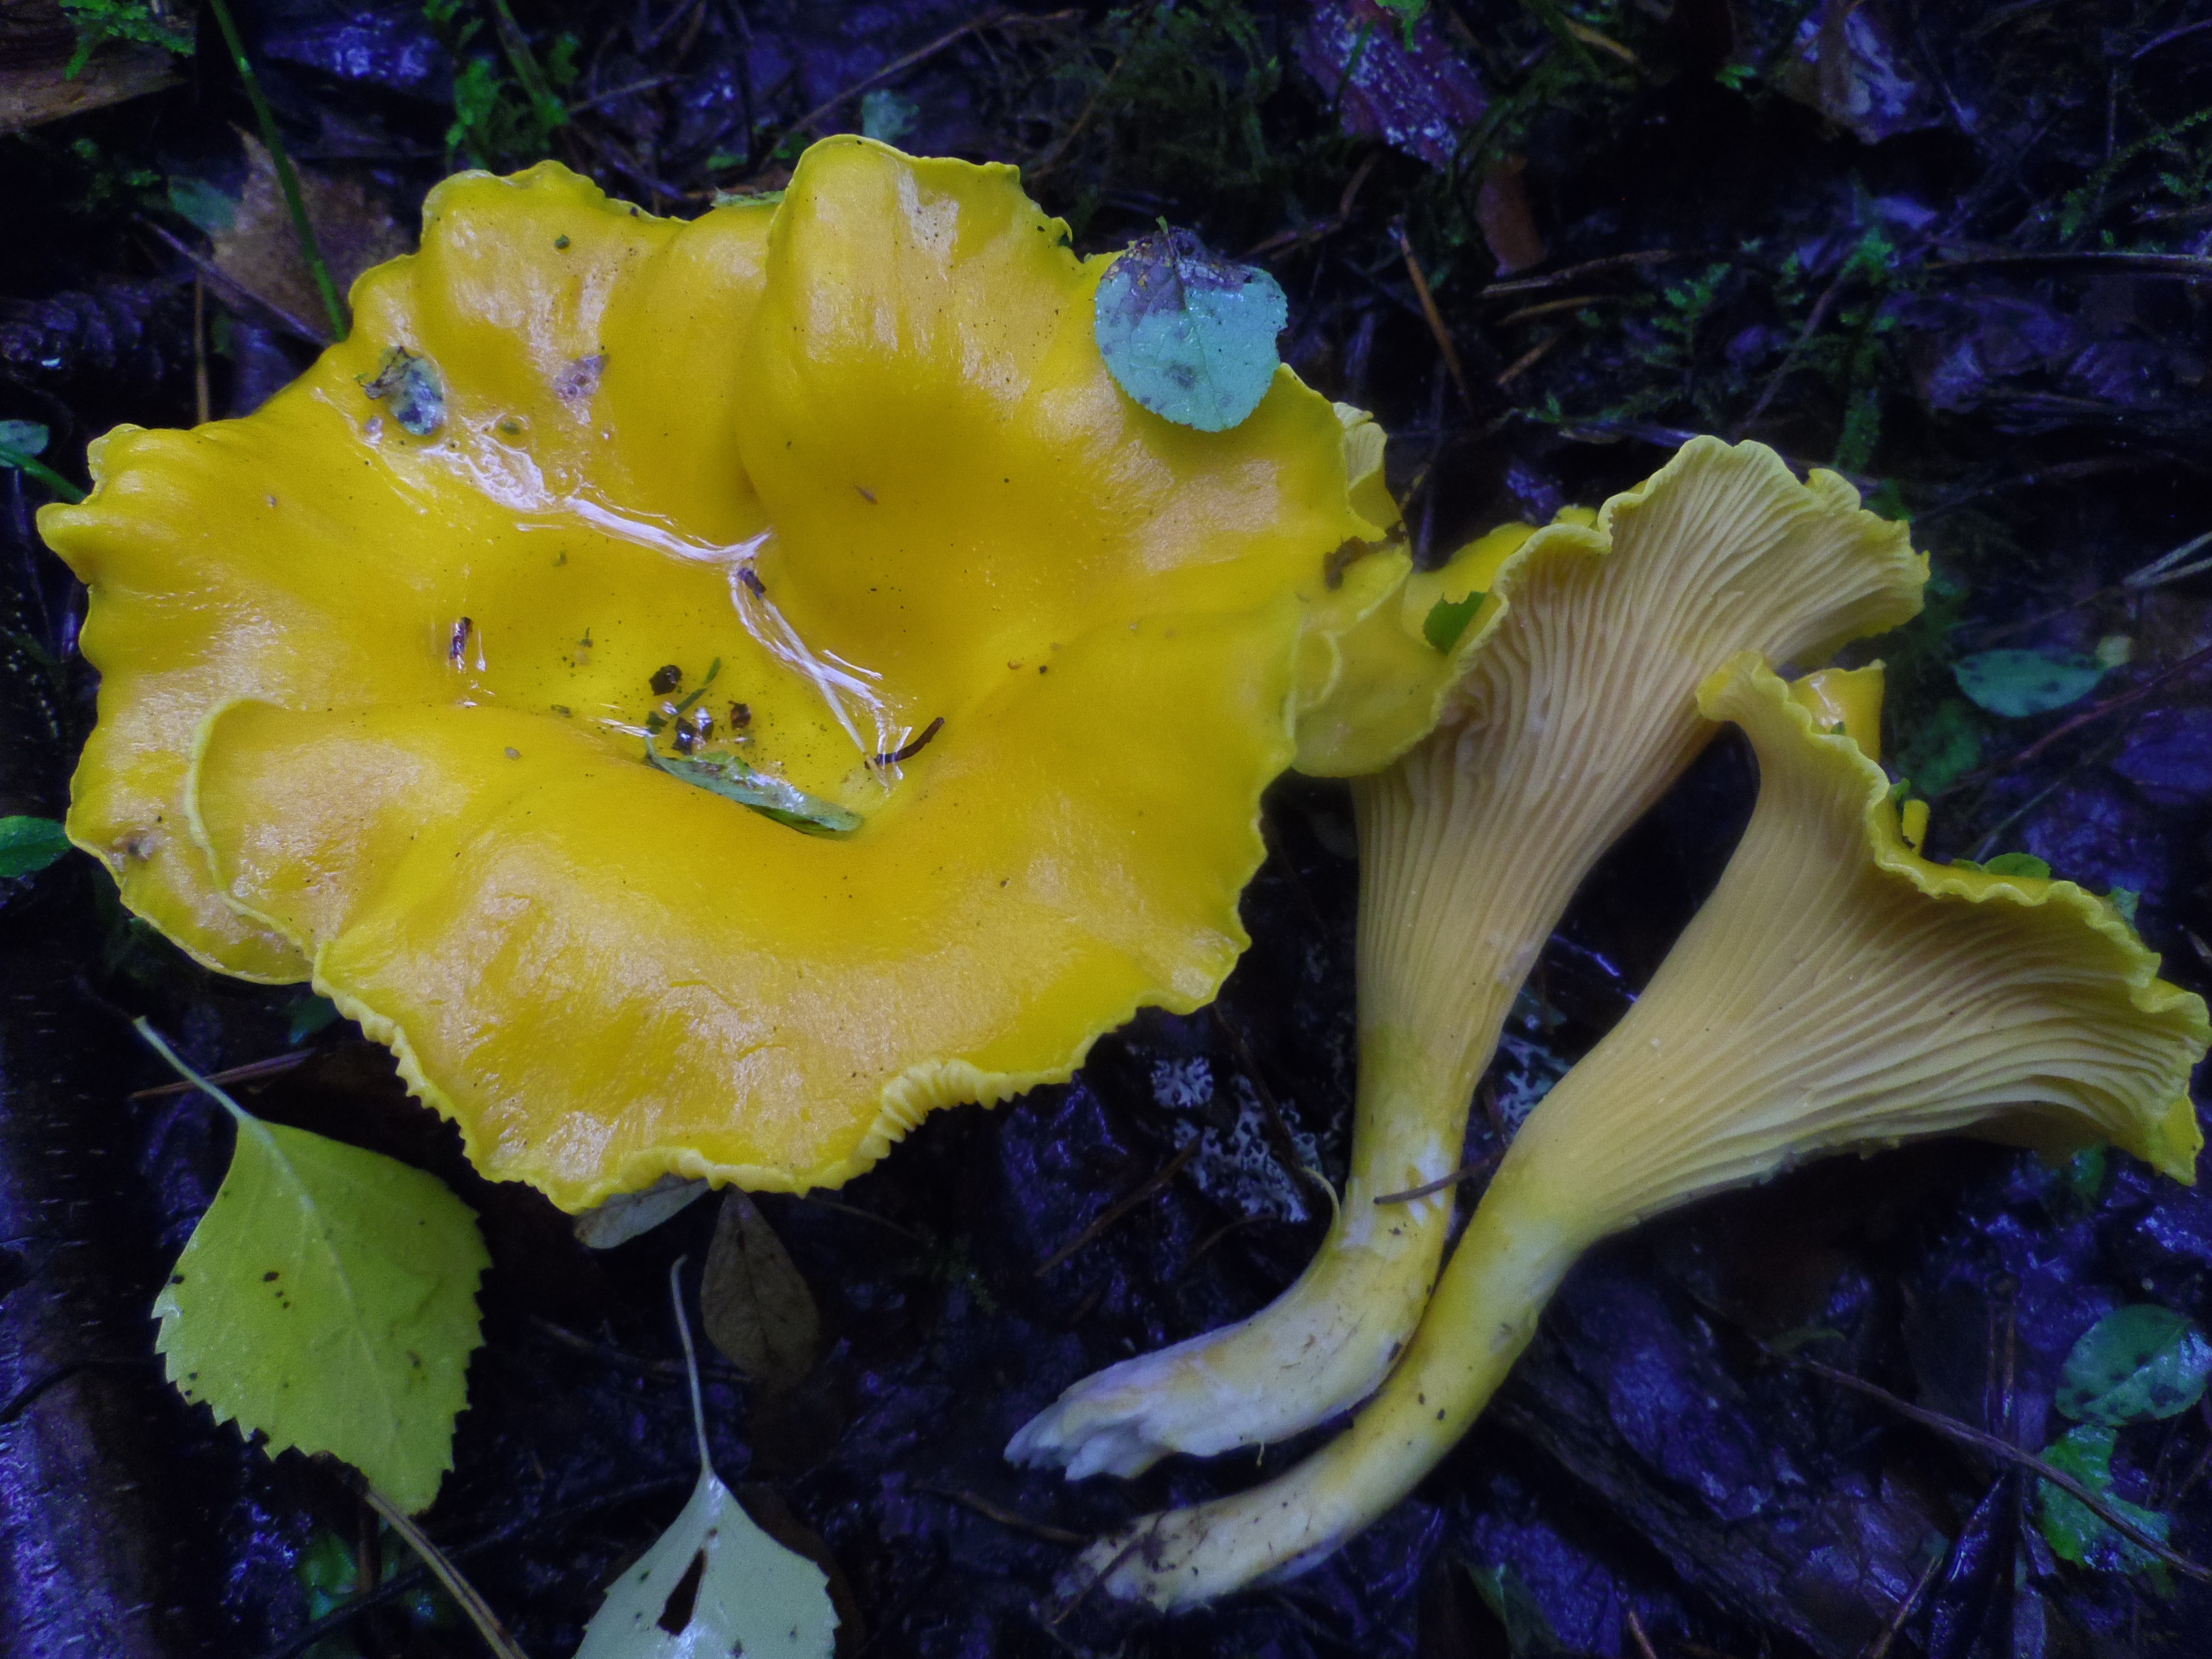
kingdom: Fungi
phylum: Basidiomycota
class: Agaricomycetes
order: Cantharellales
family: Hydnaceae
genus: Cantharellus
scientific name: Cantharellus cibarius
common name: Chanterelle
